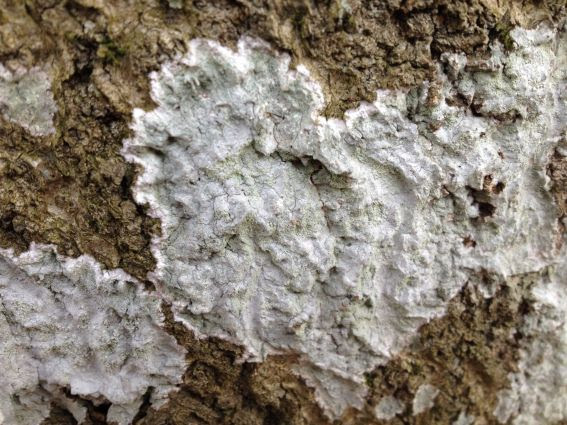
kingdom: Fungi
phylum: Ascomycota
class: Lecanoromycetes
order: Lecanorales
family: Haematommataceae
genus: Haematomma
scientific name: Haematomma ochroleucum
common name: gul trådkantlav
